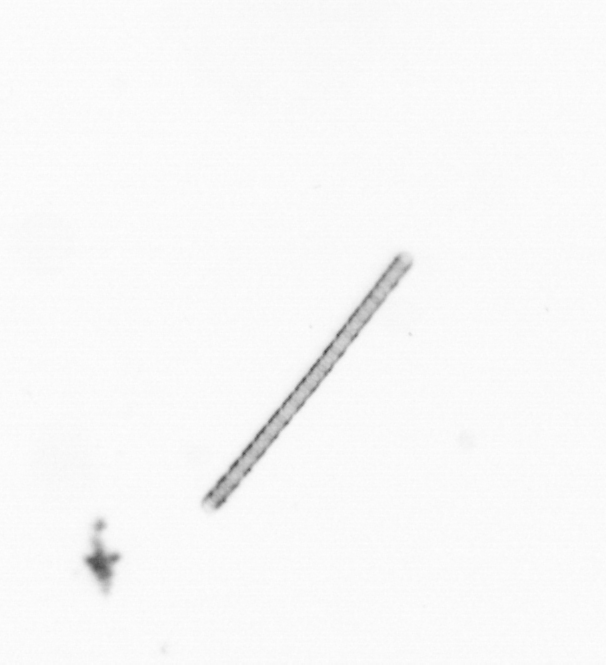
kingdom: Chromista
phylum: Ochrophyta
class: Bacillariophyceae
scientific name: Bacillariophyceae
